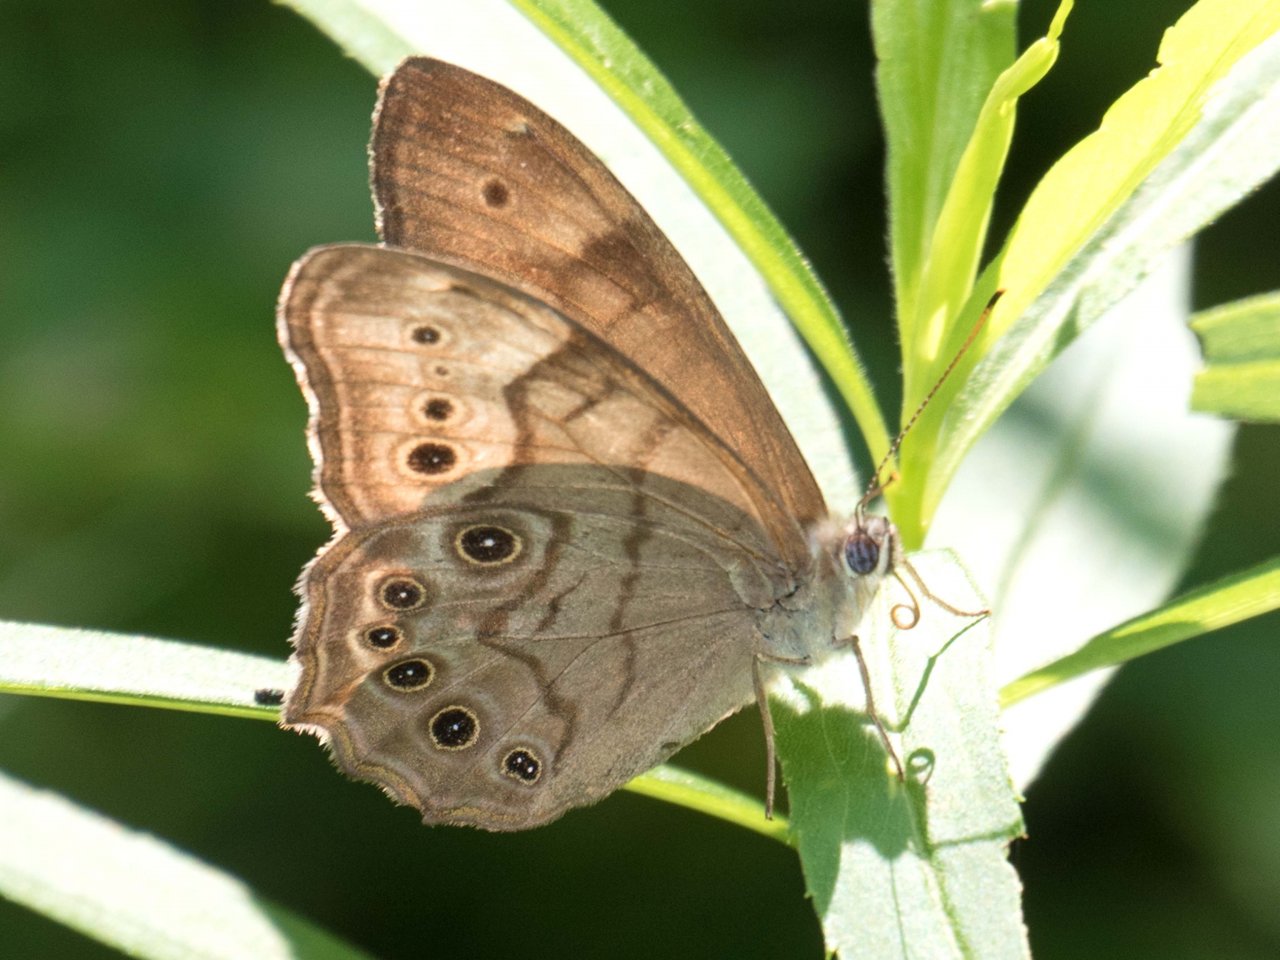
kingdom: Animalia
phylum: Arthropoda
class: Insecta
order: Lepidoptera
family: Nymphalidae
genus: Lethe
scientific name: Lethe anthedon
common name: Northern Pearly-Eye
